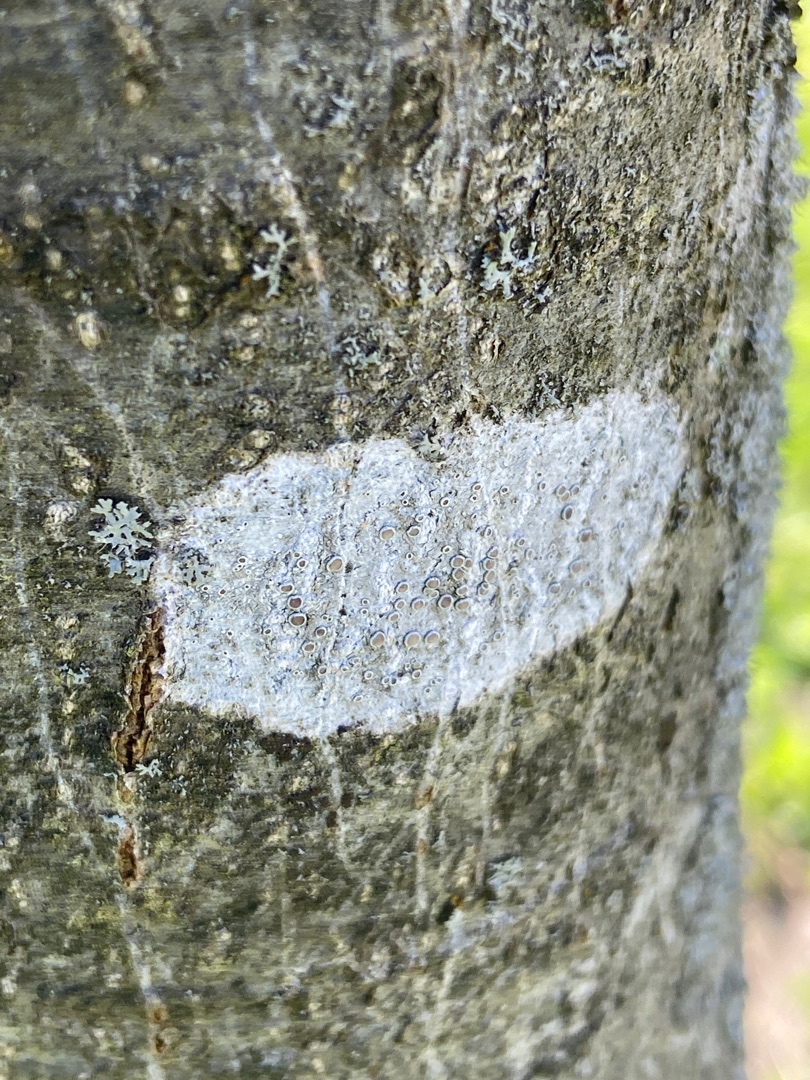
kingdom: Fungi
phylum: Ascomycota
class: Lecanoromycetes
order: Lecanorales
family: Lecanoraceae
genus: Lecanora
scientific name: Lecanora chlarotera
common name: Brun kantskivelav
